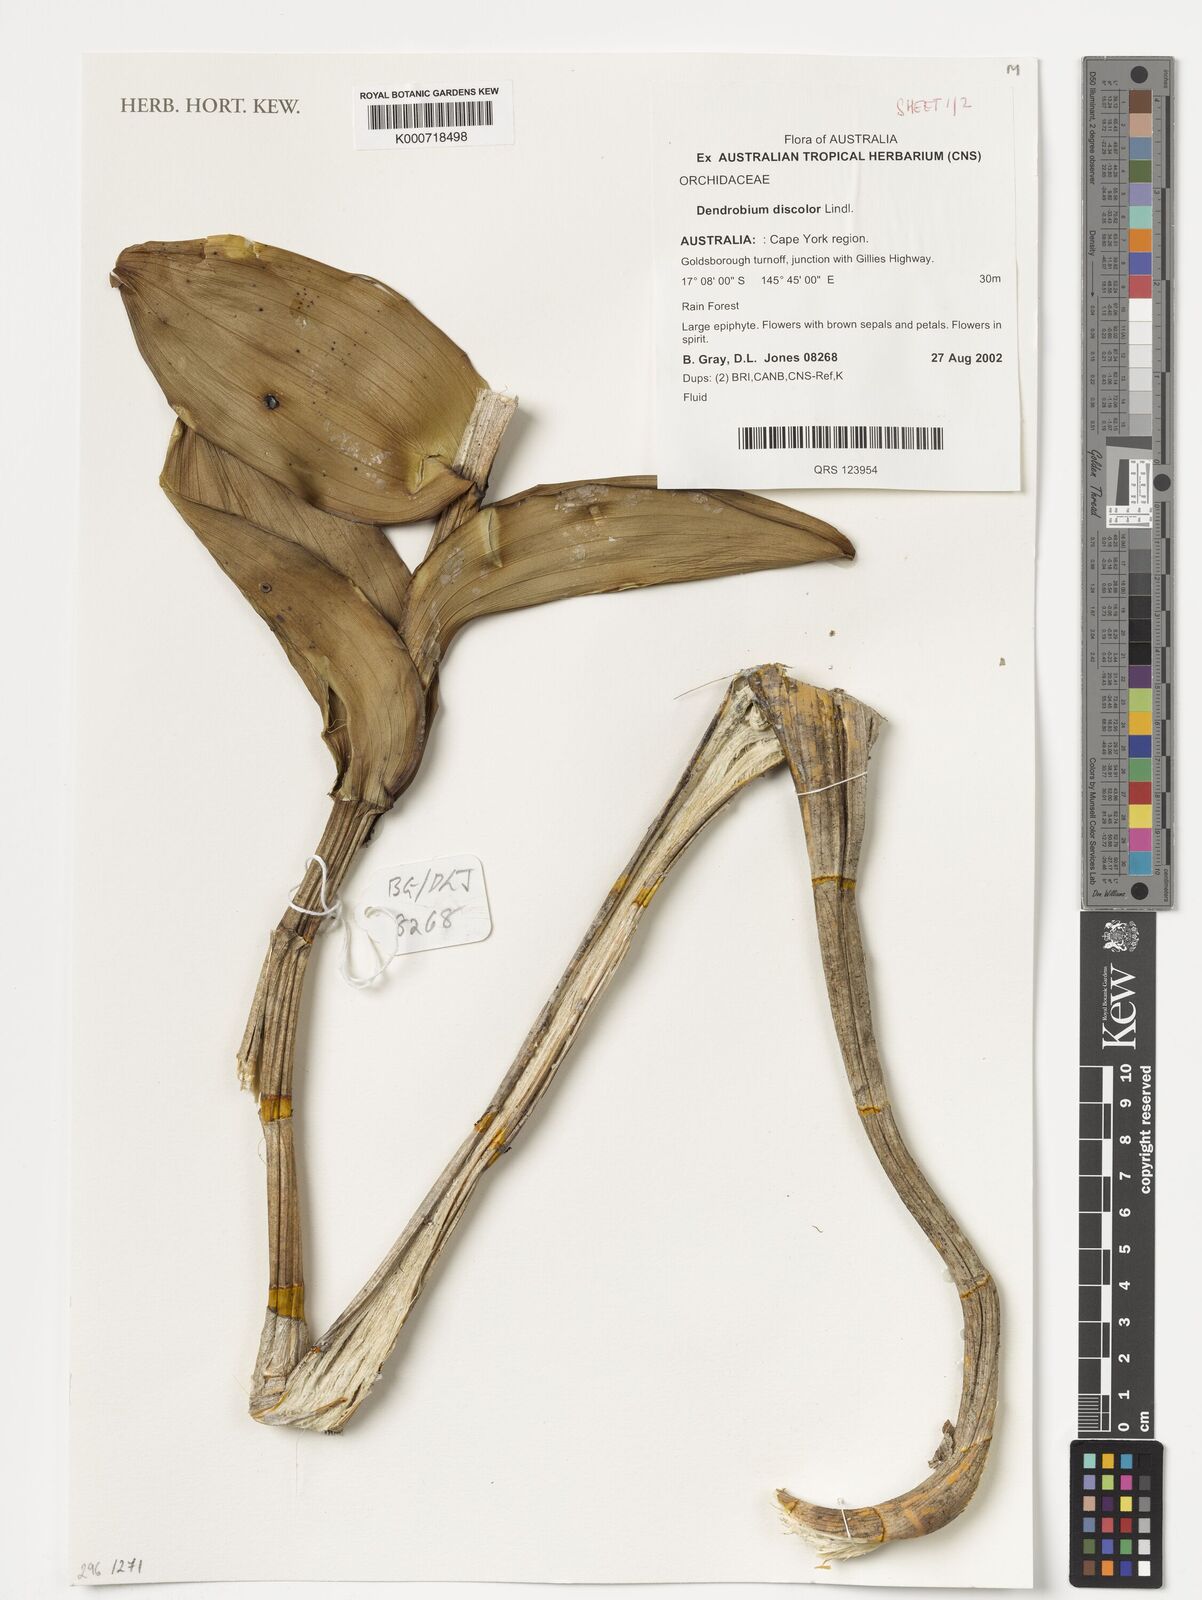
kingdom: Plantae
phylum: Tracheophyta
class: Liliopsida
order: Asparagales
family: Orchidaceae
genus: Dendrobium
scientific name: Dendrobium discolor
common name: Golden antler orchid
